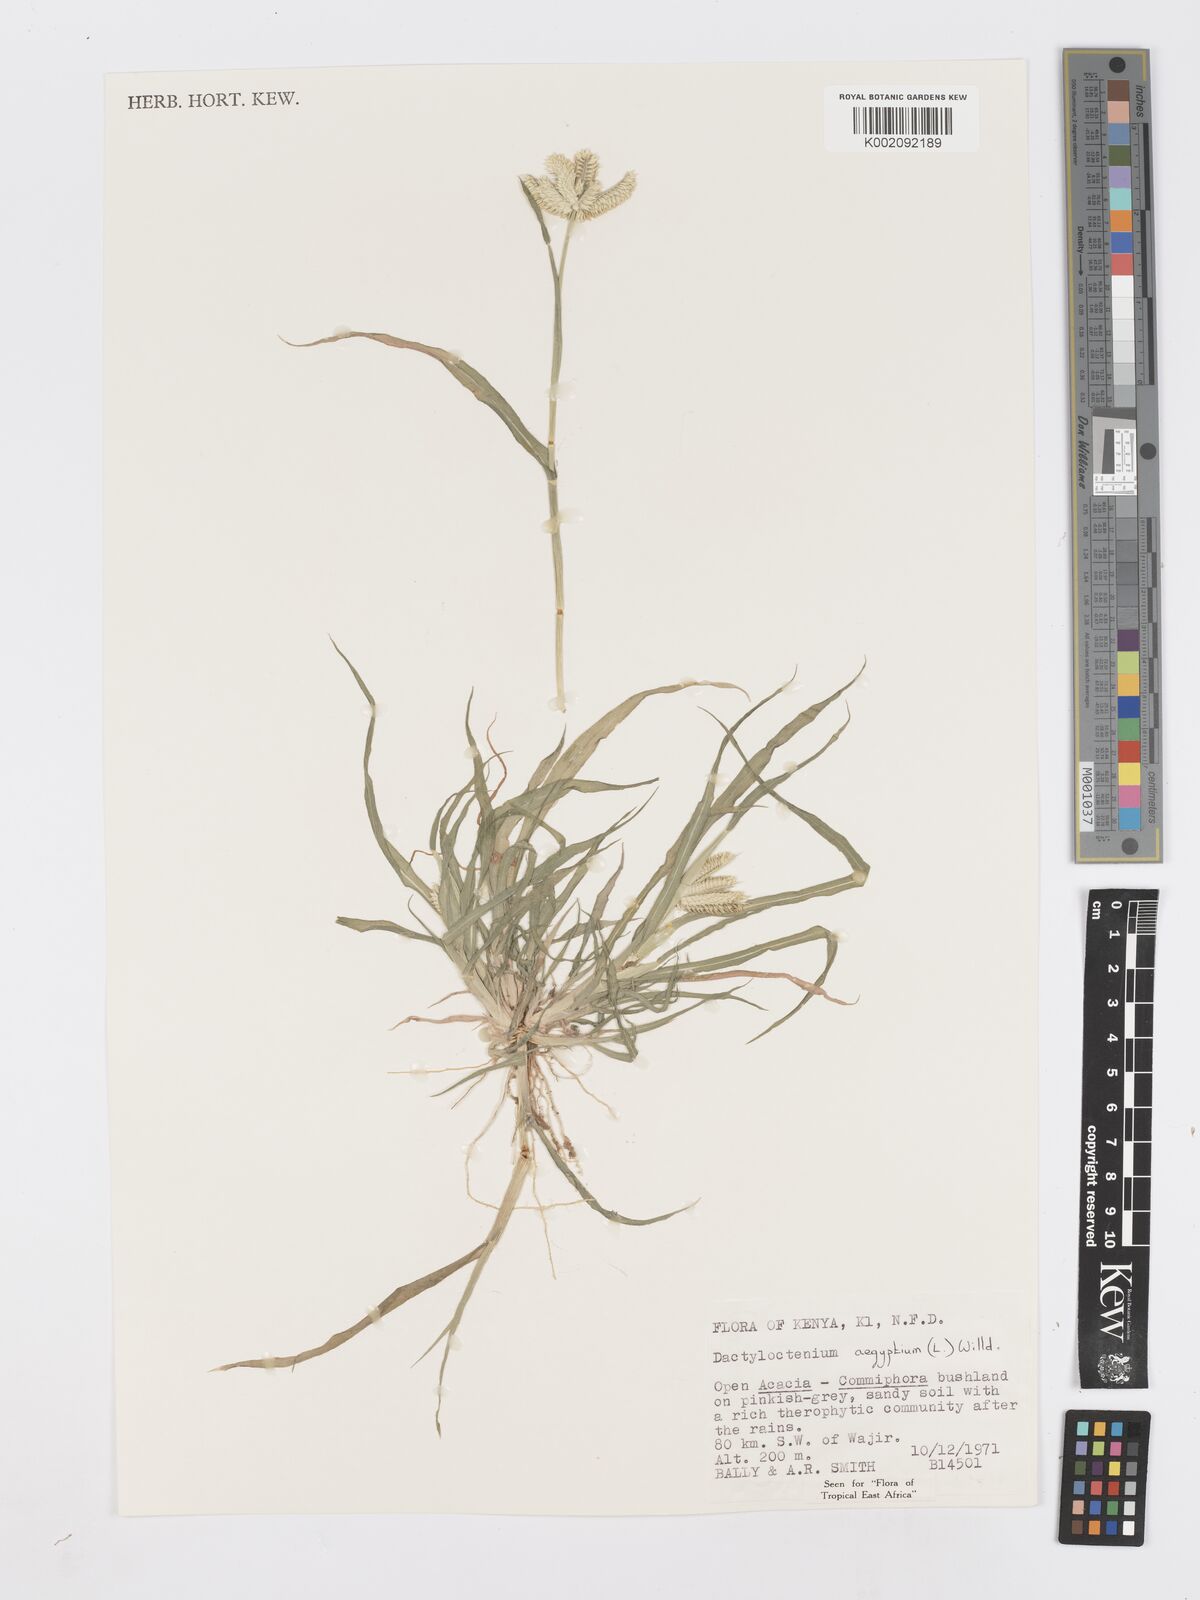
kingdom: Plantae
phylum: Tracheophyta
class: Liliopsida
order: Poales
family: Poaceae
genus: Dactyloctenium
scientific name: Dactyloctenium aegyptium
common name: Egyptian grass
